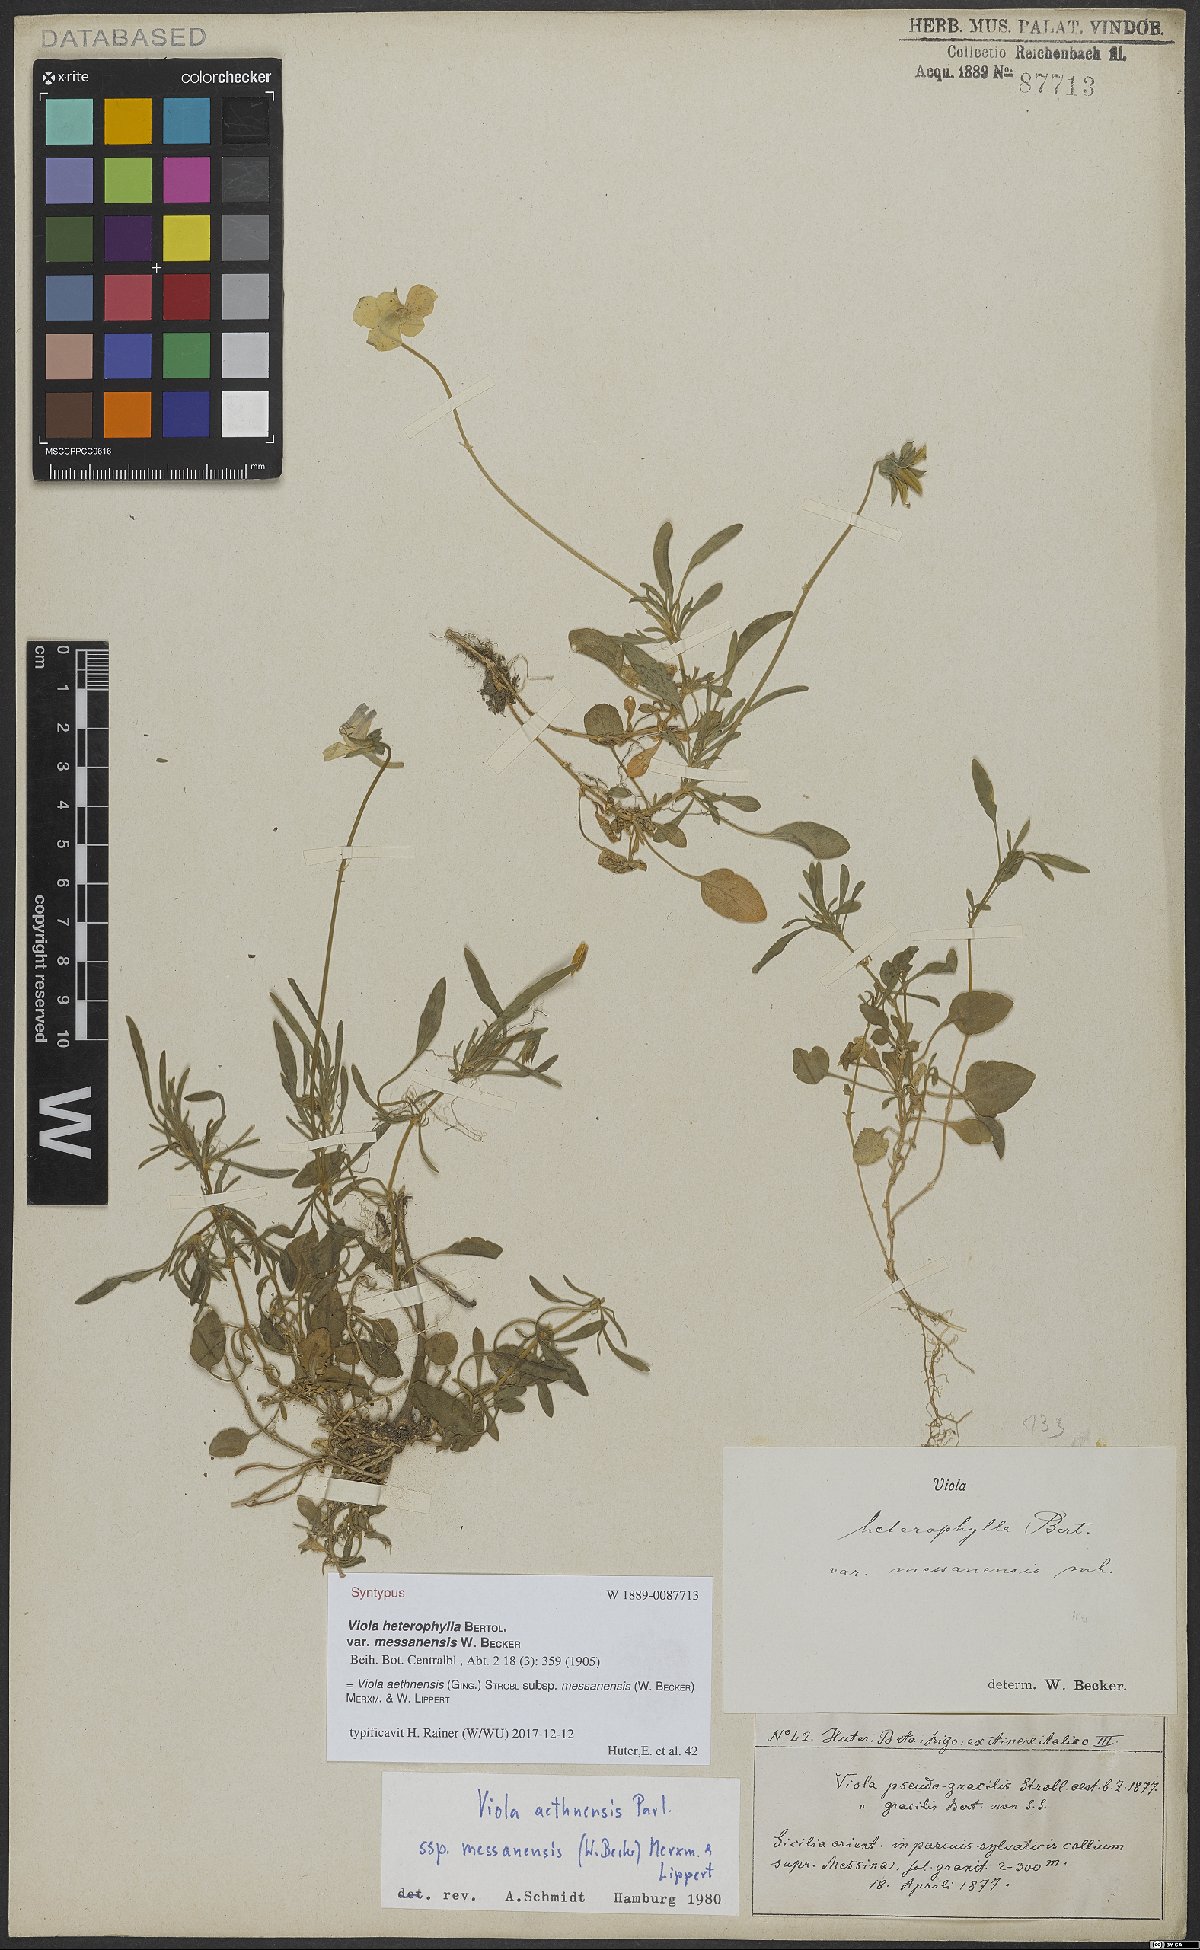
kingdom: Plantae
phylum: Tracheophyta
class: Magnoliopsida
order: Malpighiales
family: Violaceae
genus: Viola
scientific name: Viola aethnensis
